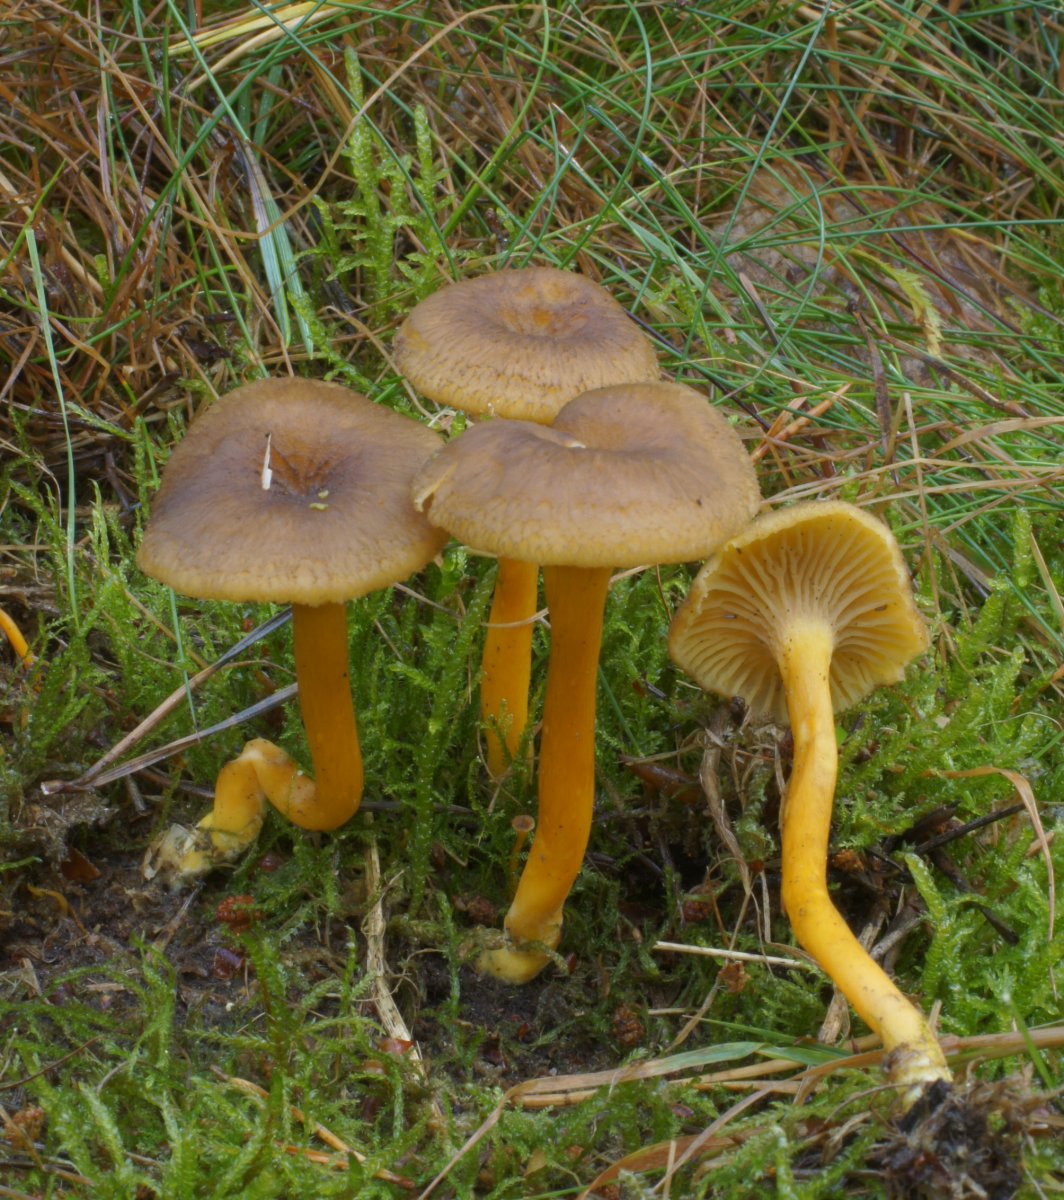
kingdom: Fungi
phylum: Basidiomycota
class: Agaricomycetes
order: Cantharellales
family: Hydnaceae
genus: Craterellus
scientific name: Craterellus tubaeformis
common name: tragt-kantarel
